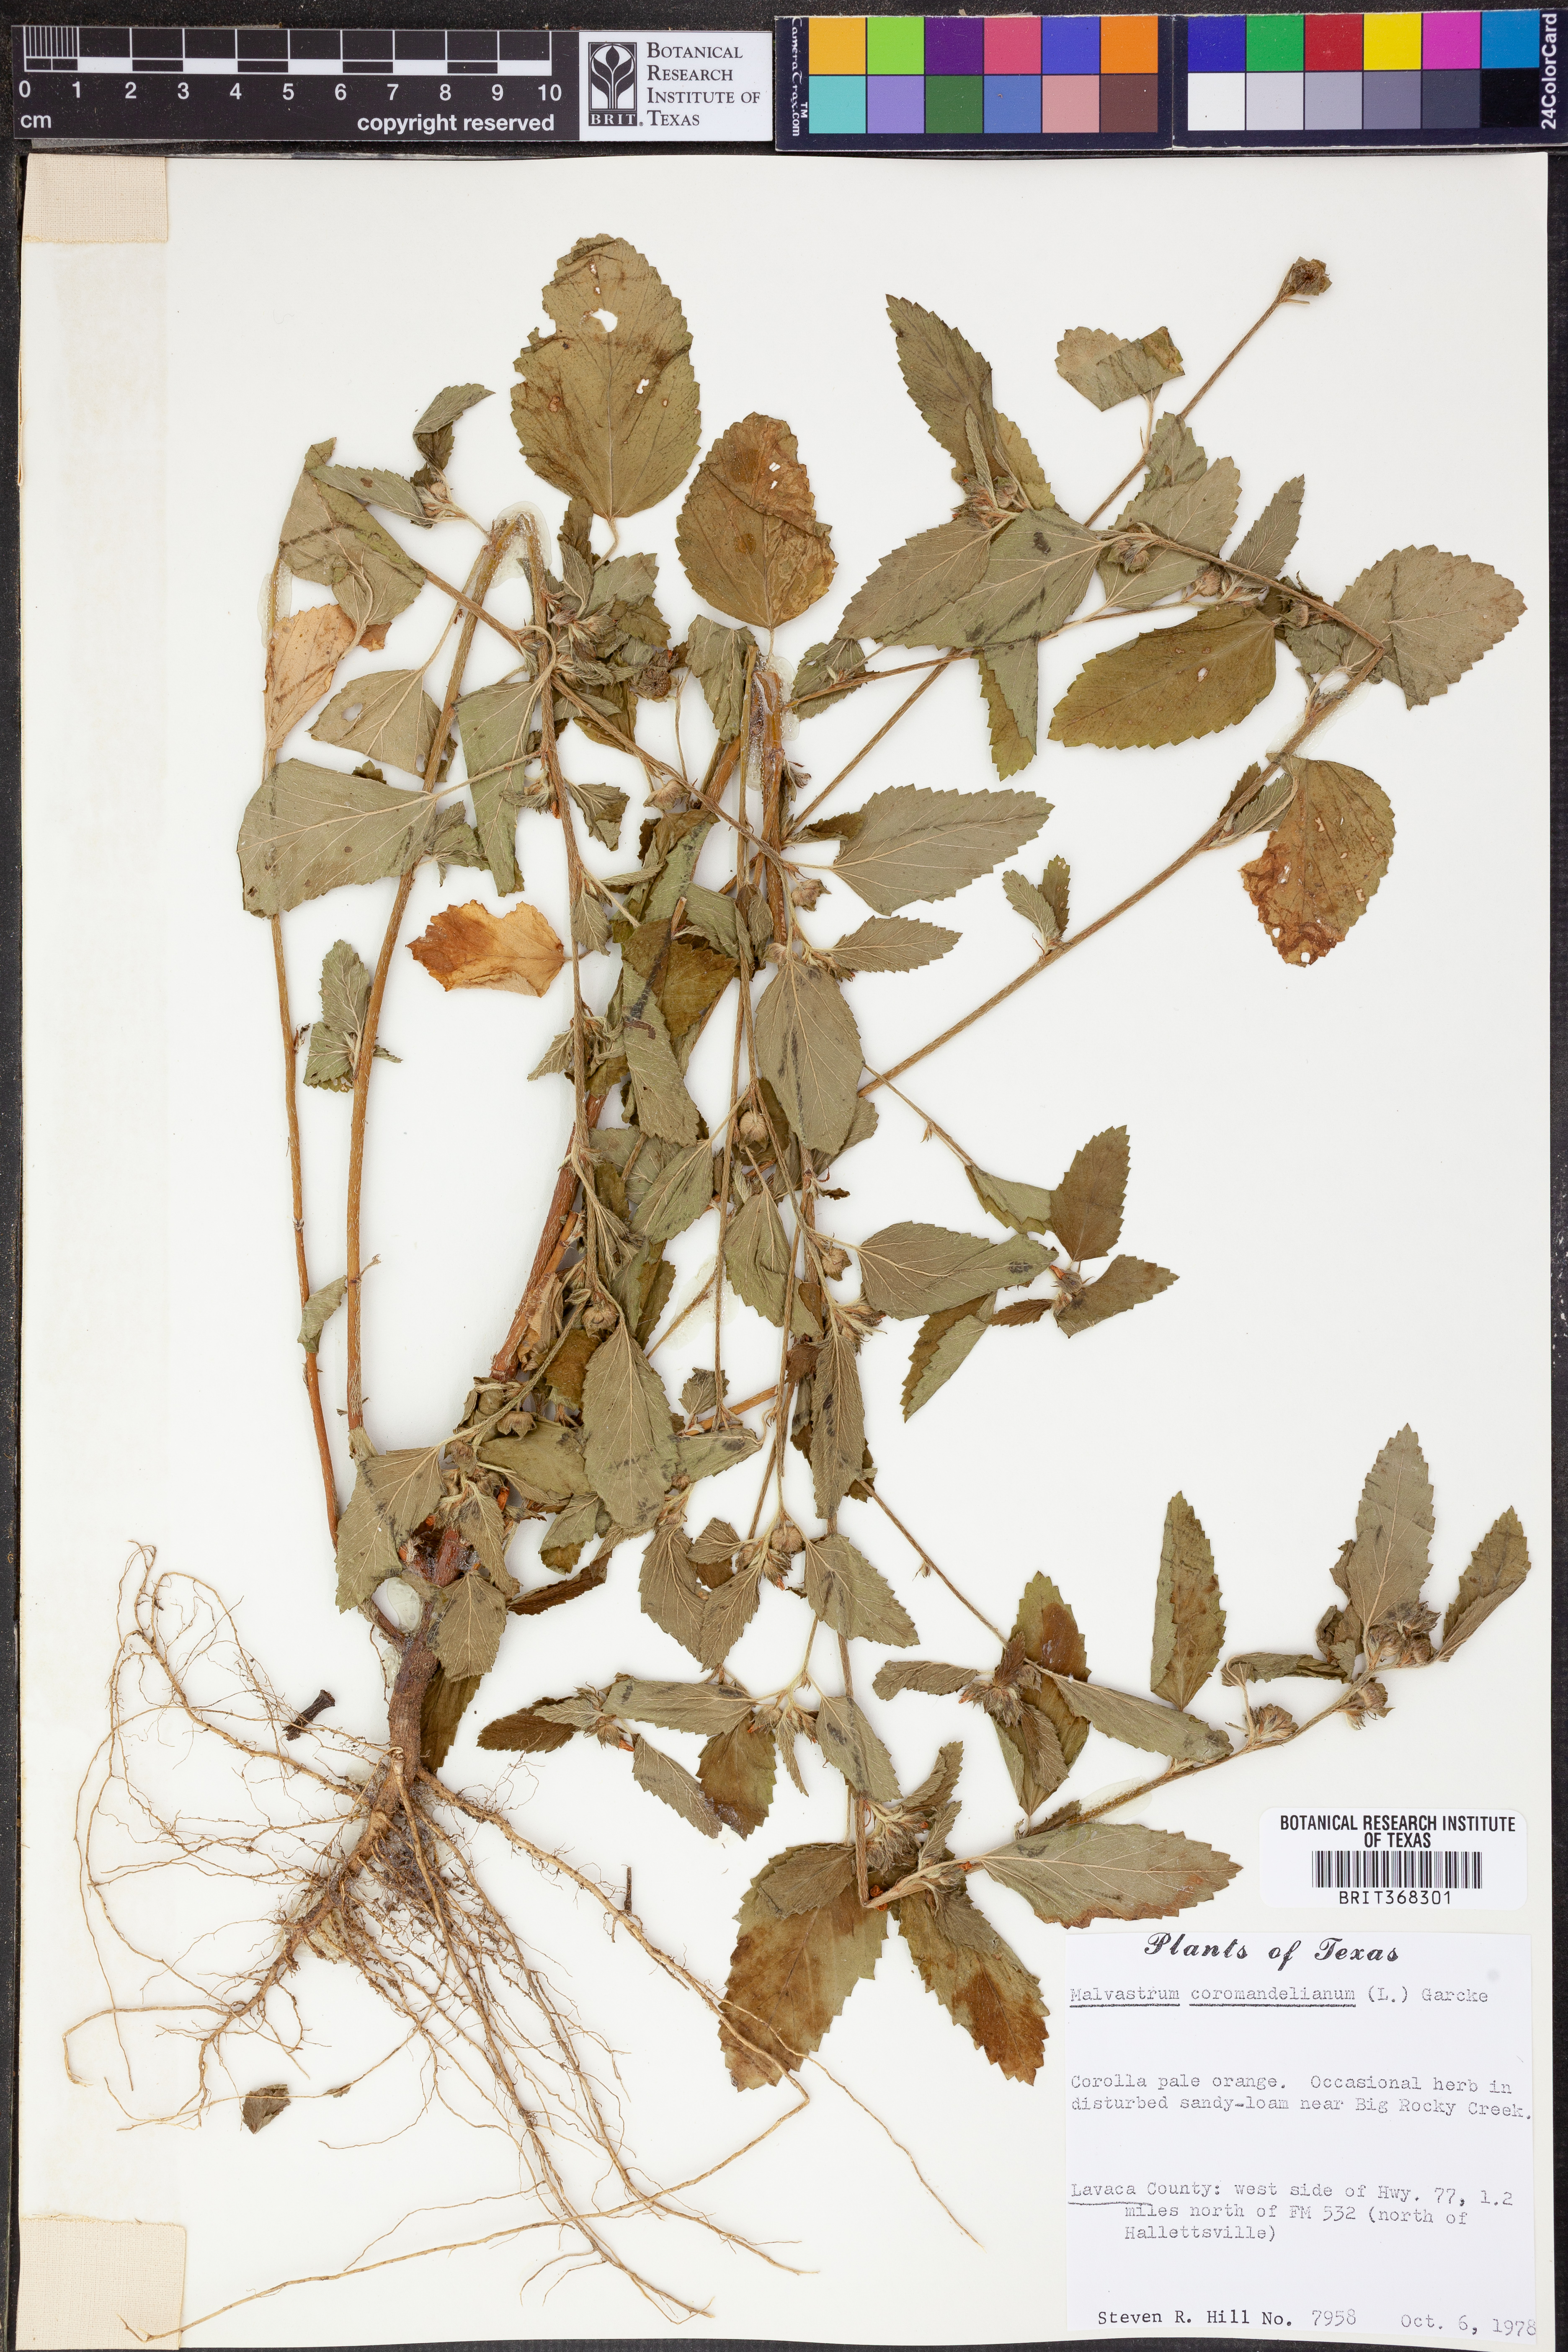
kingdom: Plantae
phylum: Tracheophyta
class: Magnoliopsida
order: Malvales
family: Malvaceae
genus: Malvastrum
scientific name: Malvastrum coromandelianum
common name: Threelobe false mallow
